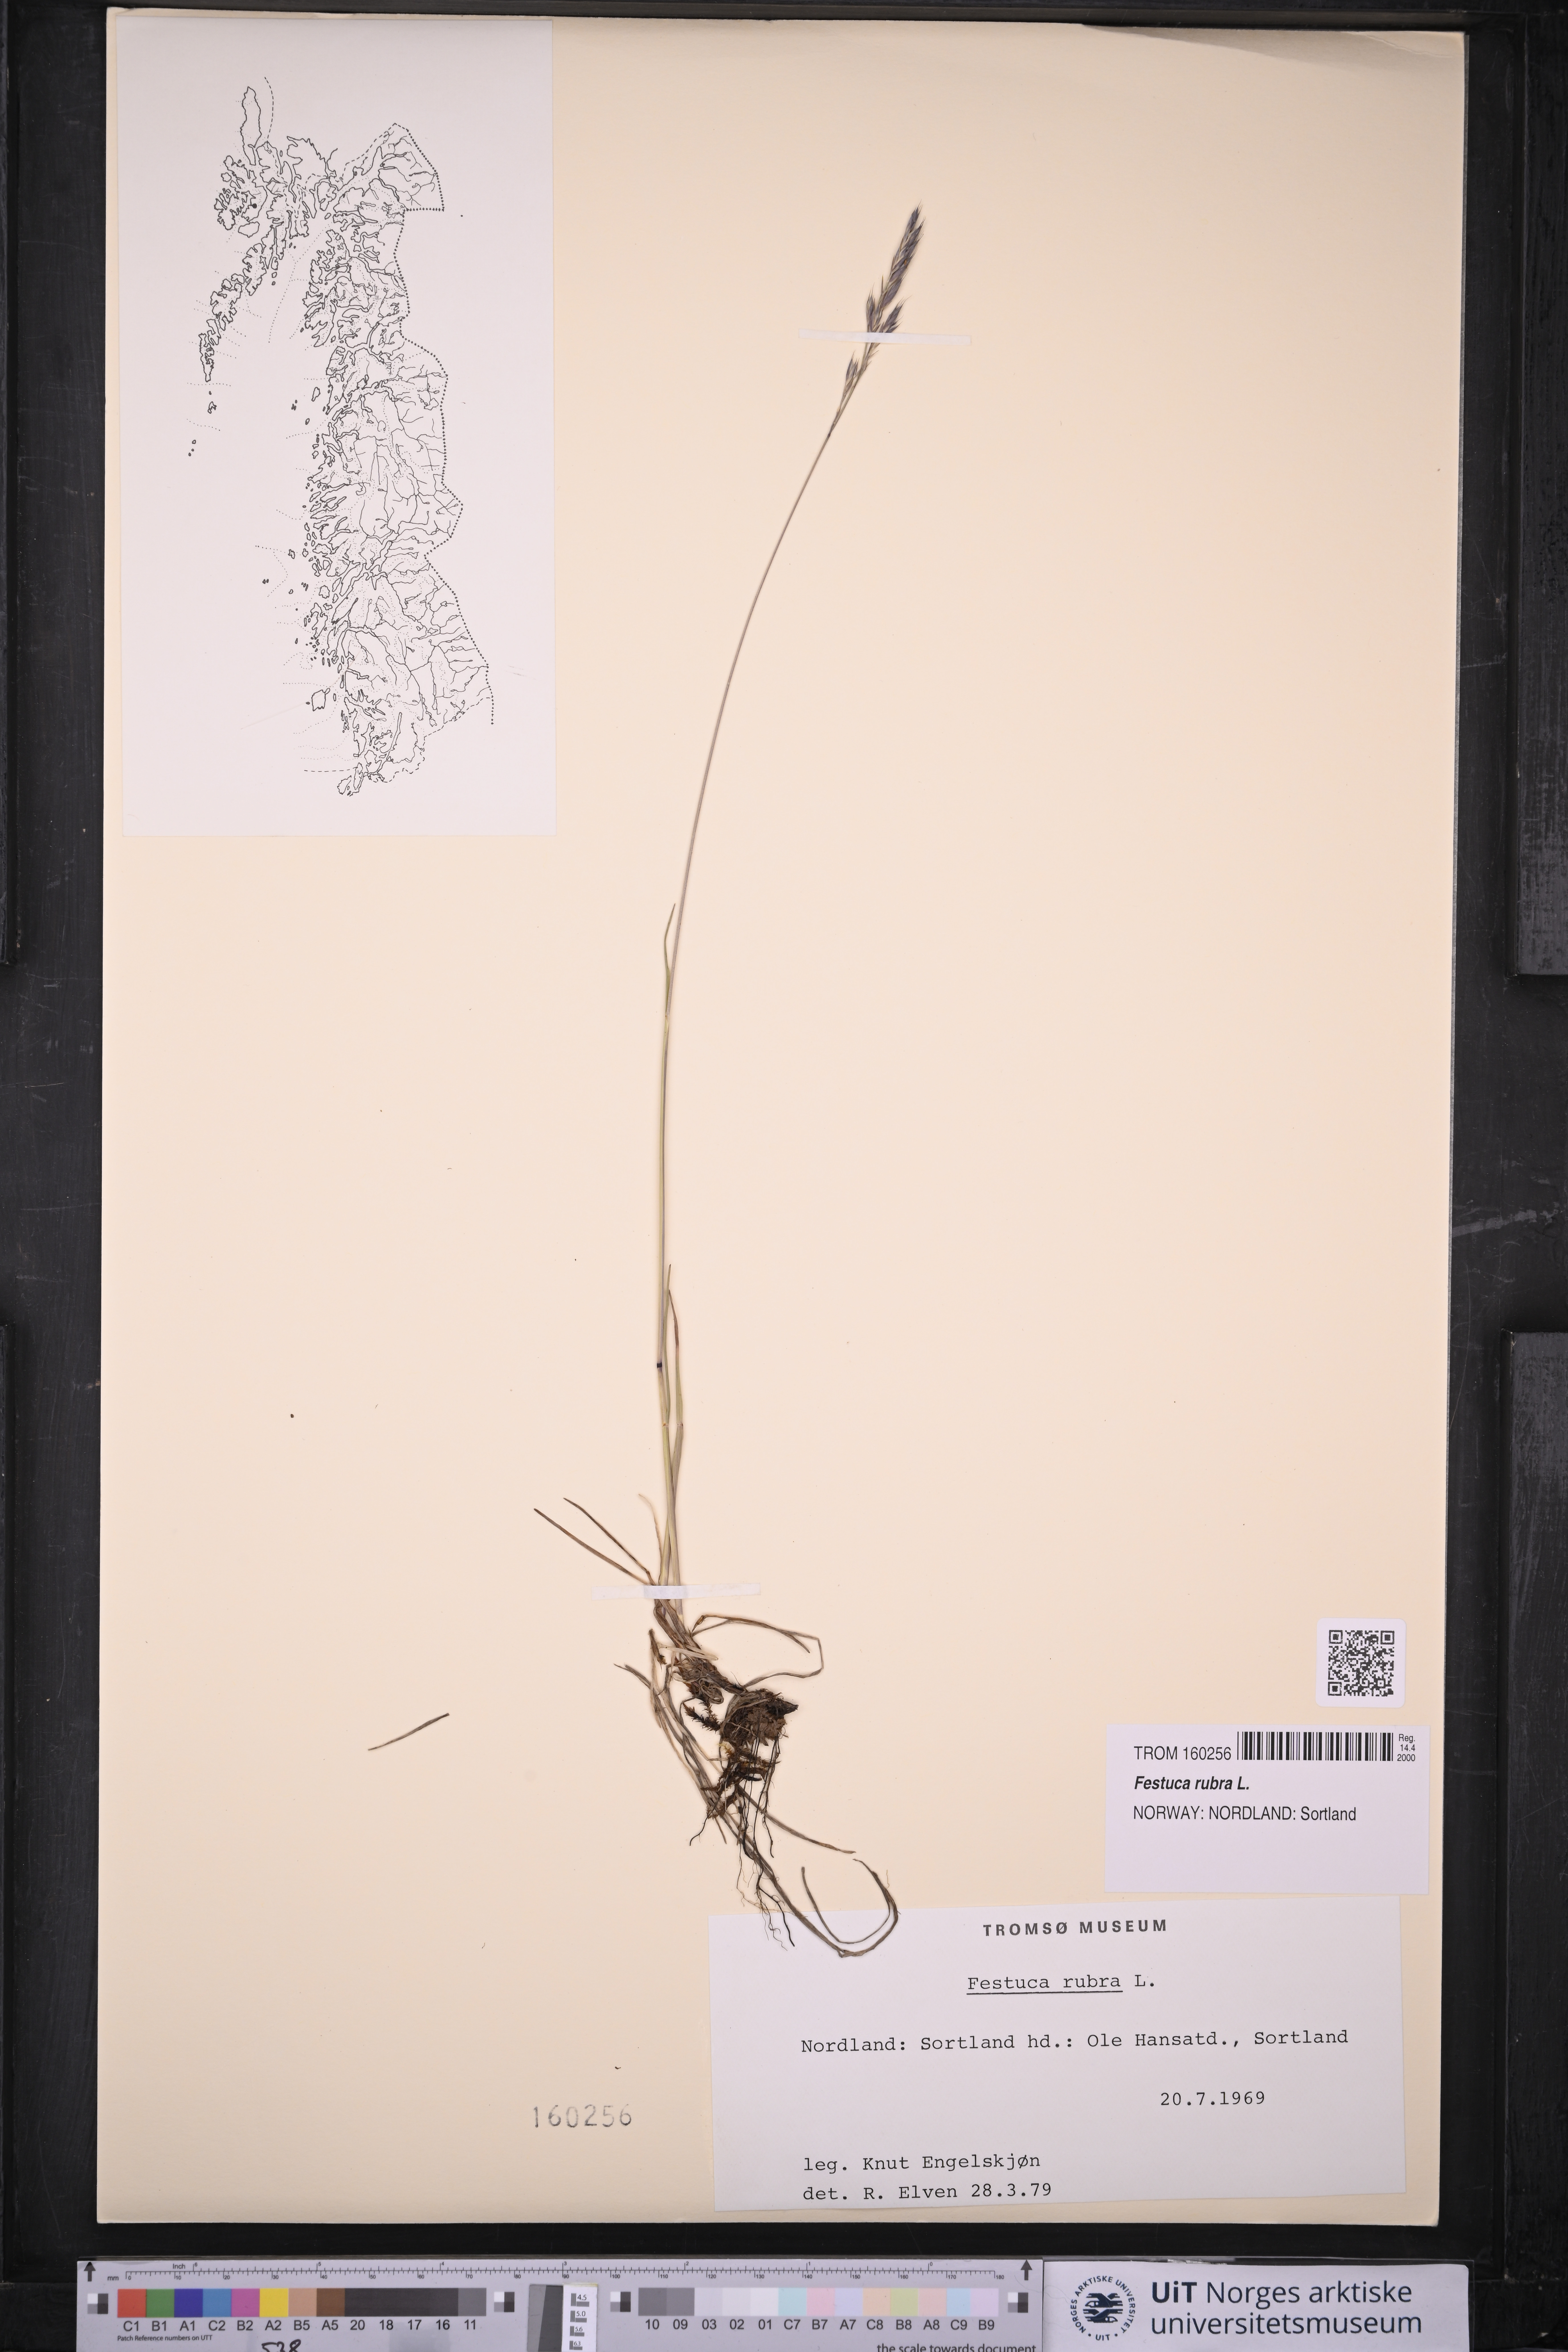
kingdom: Plantae
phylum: Tracheophyta
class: Liliopsida
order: Poales
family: Poaceae
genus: Festuca
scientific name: Festuca rubra
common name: Red fescue
